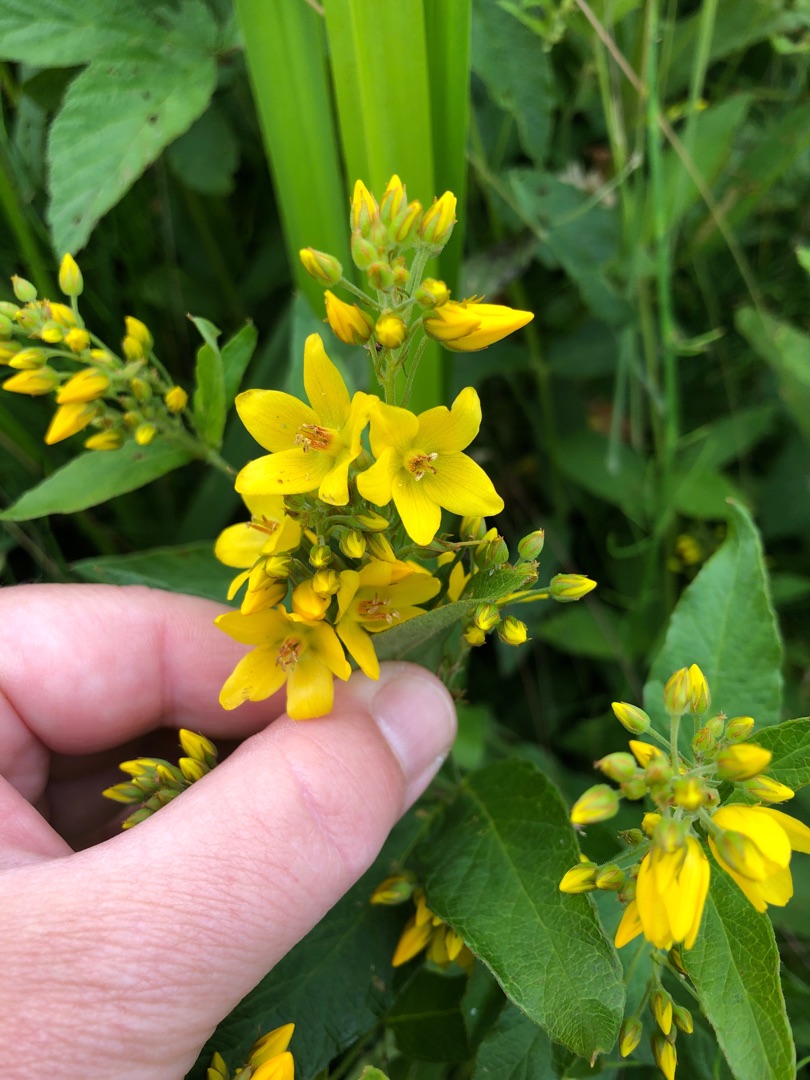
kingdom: Plantae
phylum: Tracheophyta
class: Magnoliopsida
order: Ericales
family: Primulaceae
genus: Lysimachia
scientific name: Lysimachia vulgaris
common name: Almindelig fredløs
